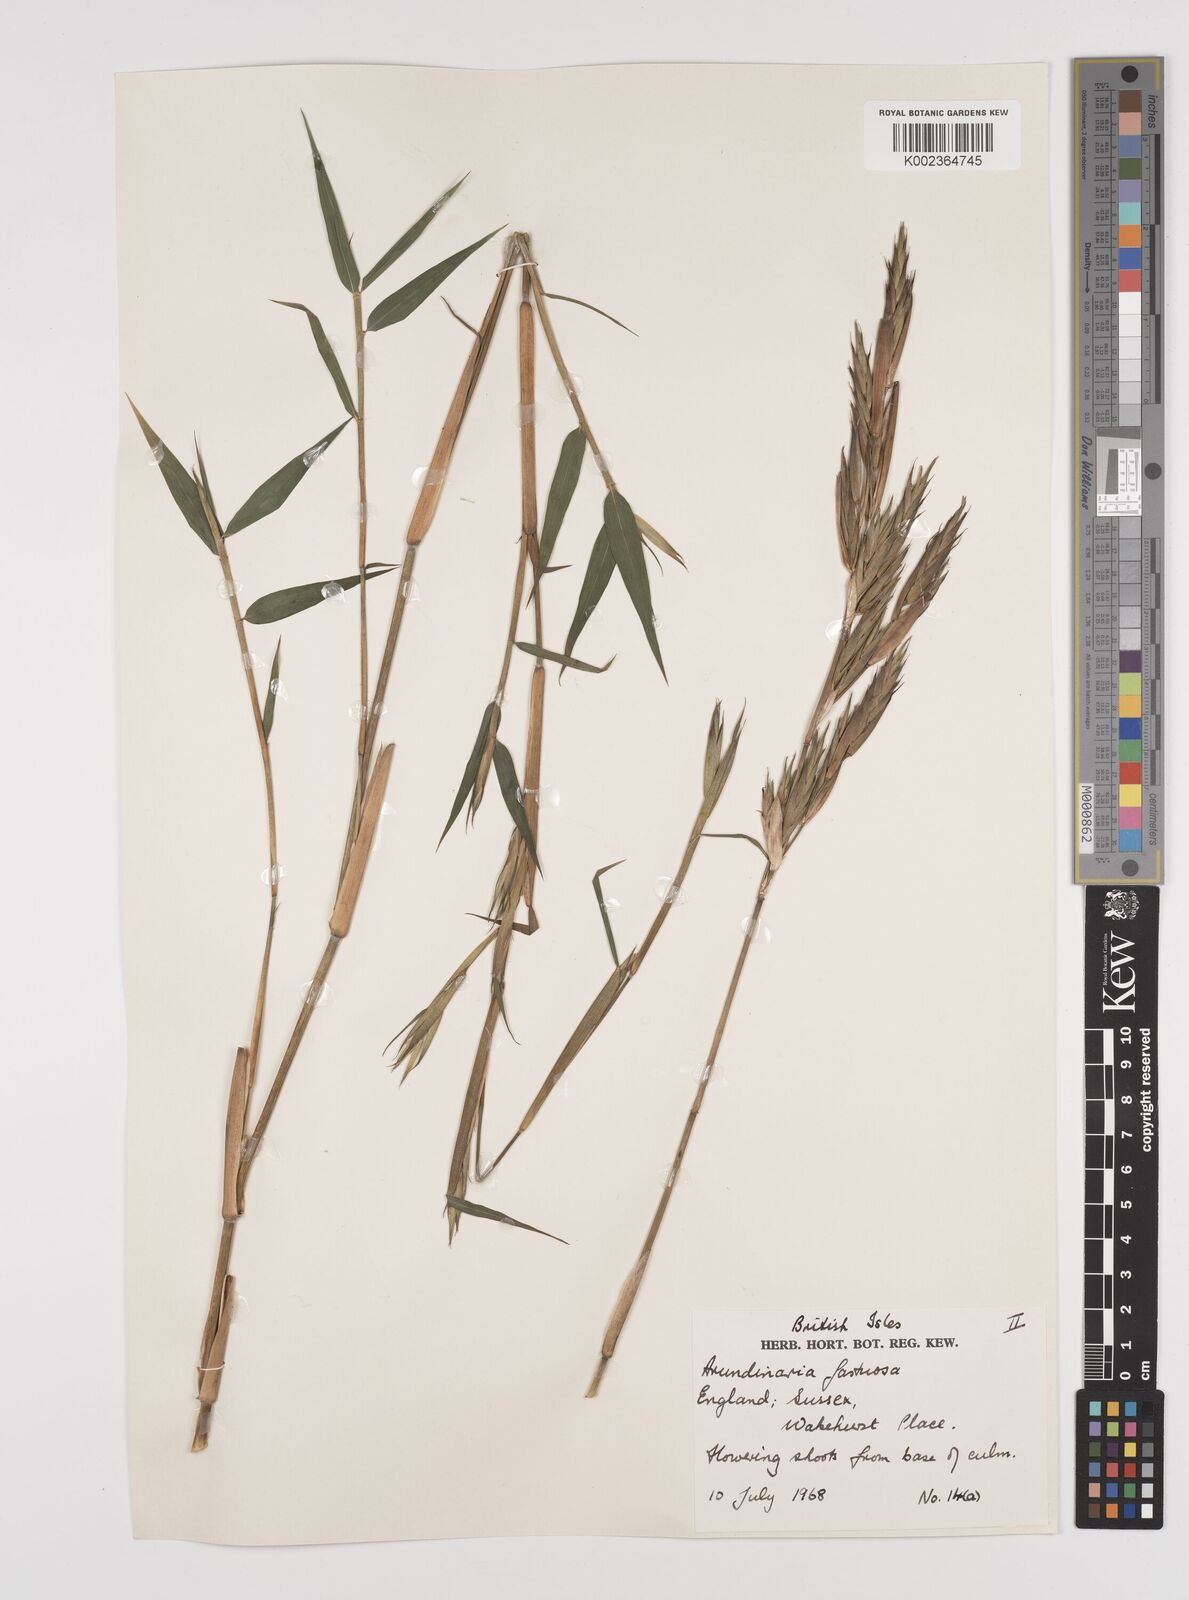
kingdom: Plantae
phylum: Tracheophyta
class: Liliopsida
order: Poales
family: Poaceae
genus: Semiarundinaria
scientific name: Semiarundinaria fastuosa
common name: Narihira bamboo
